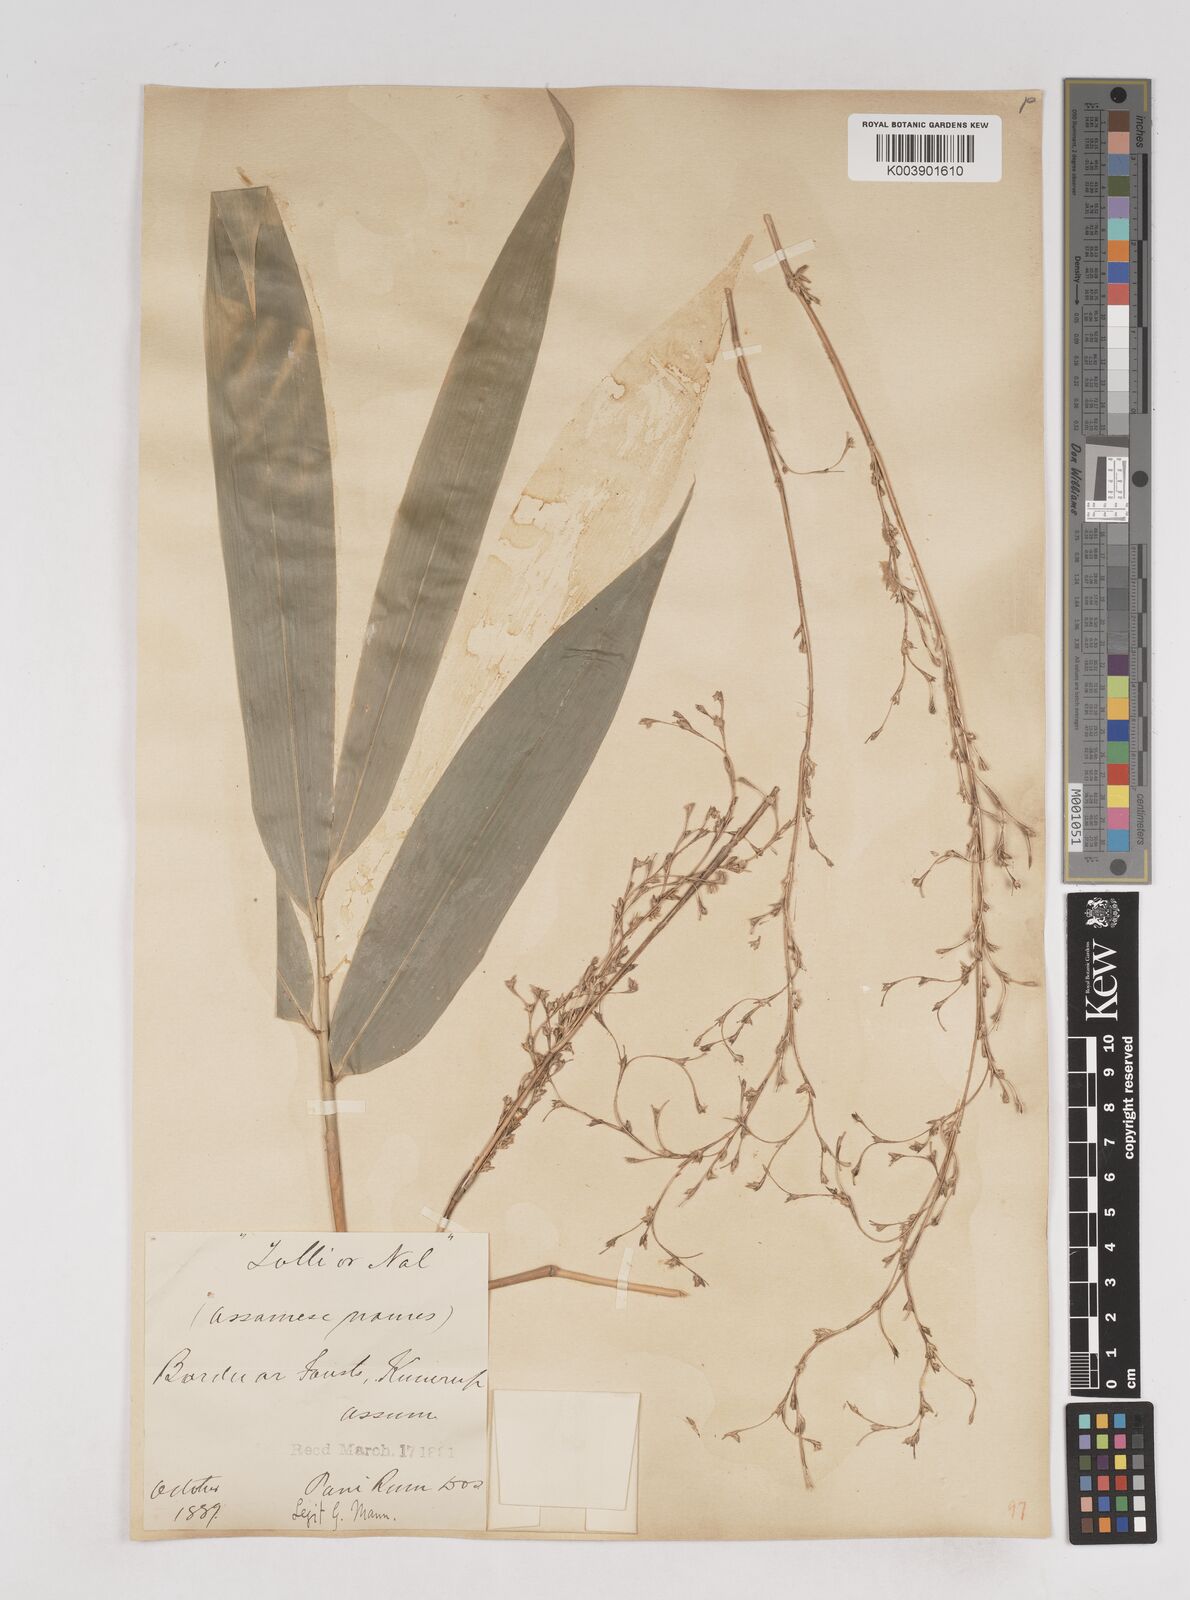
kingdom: Plantae
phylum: Tracheophyta
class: Liliopsida
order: Poales
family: Poaceae
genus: Pseudostachyum
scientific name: Pseudostachyum polymorphum
